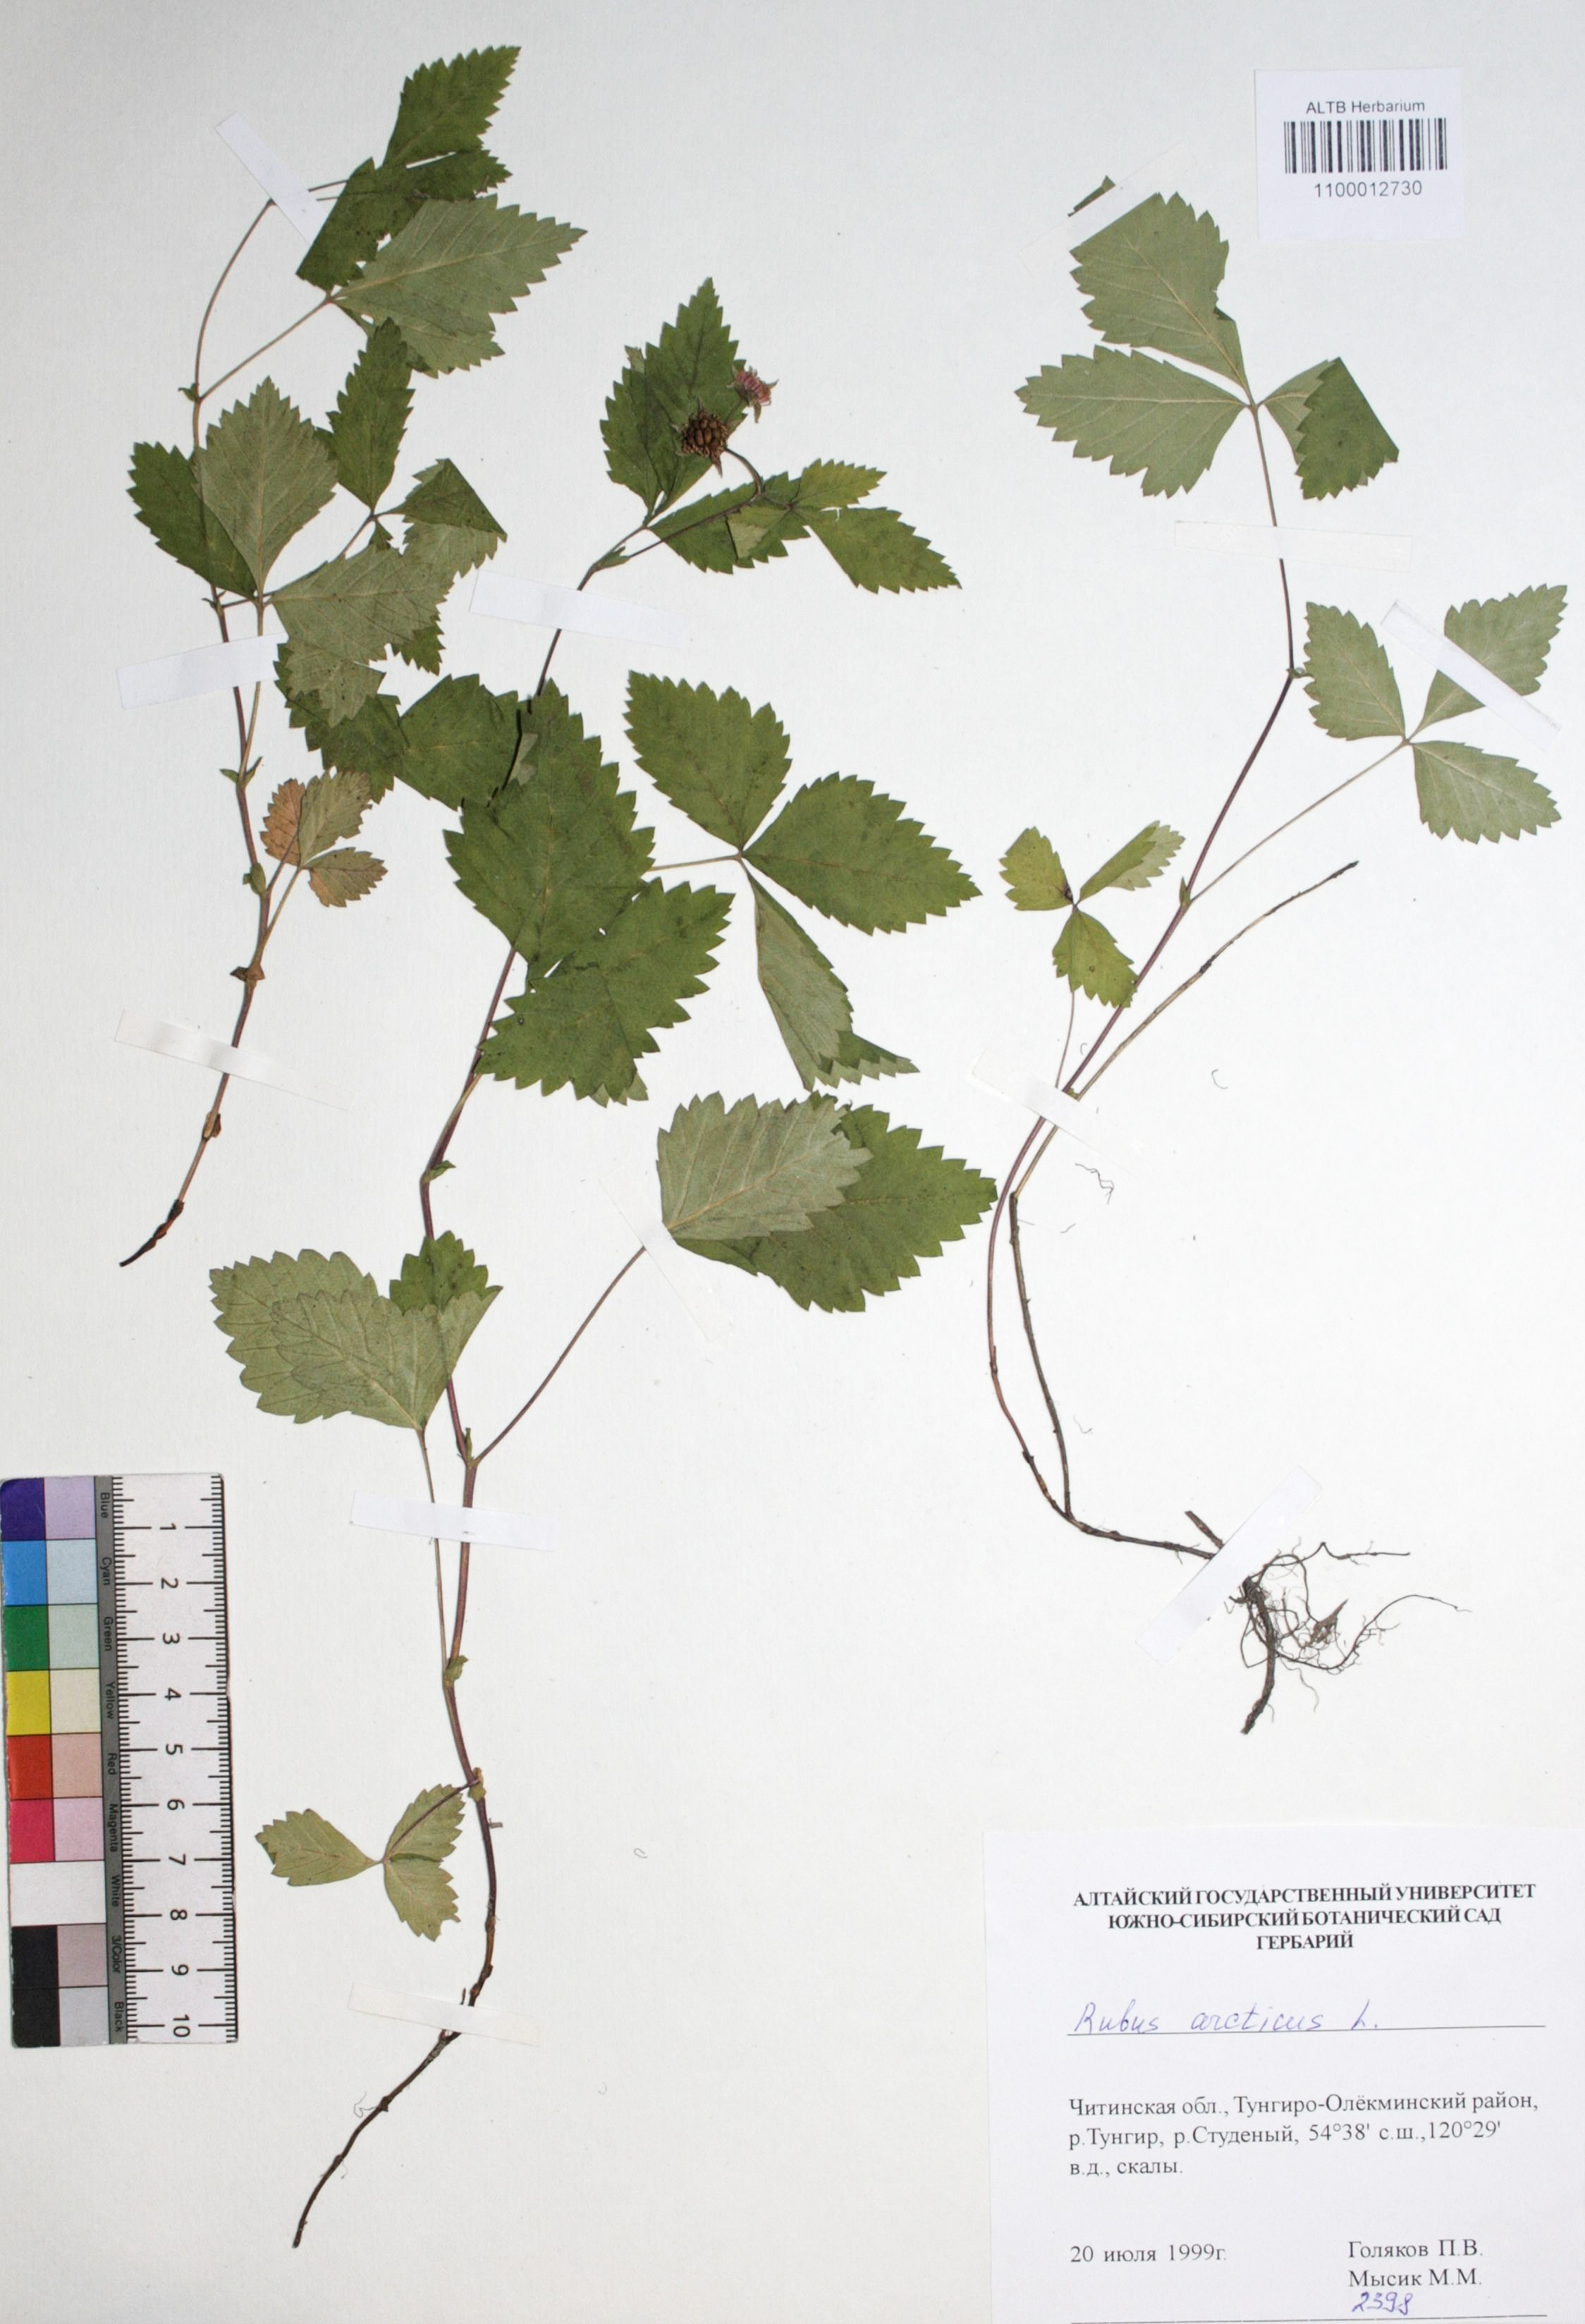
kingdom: Plantae
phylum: Tracheophyta
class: Magnoliopsida
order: Rosales
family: Rosaceae
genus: Rubus
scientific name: Rubus arcticus
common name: Arctic bramble
